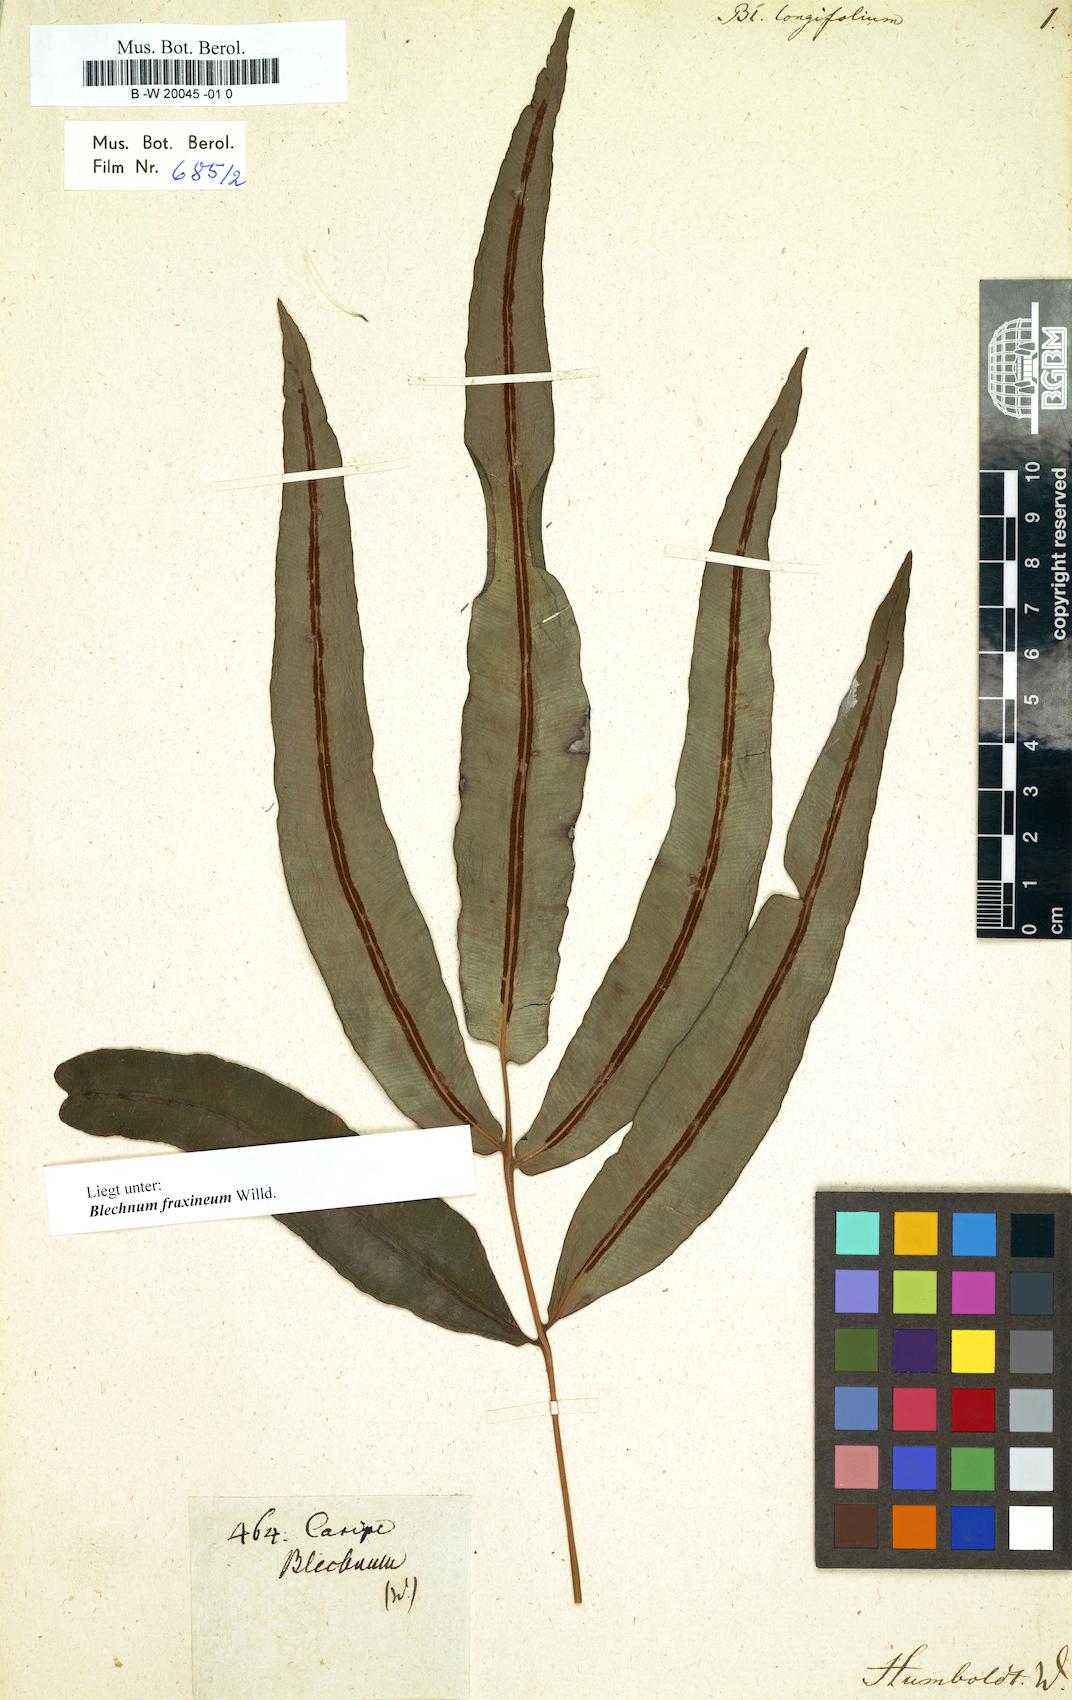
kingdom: Plantae
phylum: Tracheophyta
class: Polypodiopsida
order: Polypodiales
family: Blechnaceae
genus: Blechnum
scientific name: Blechnum meridense
